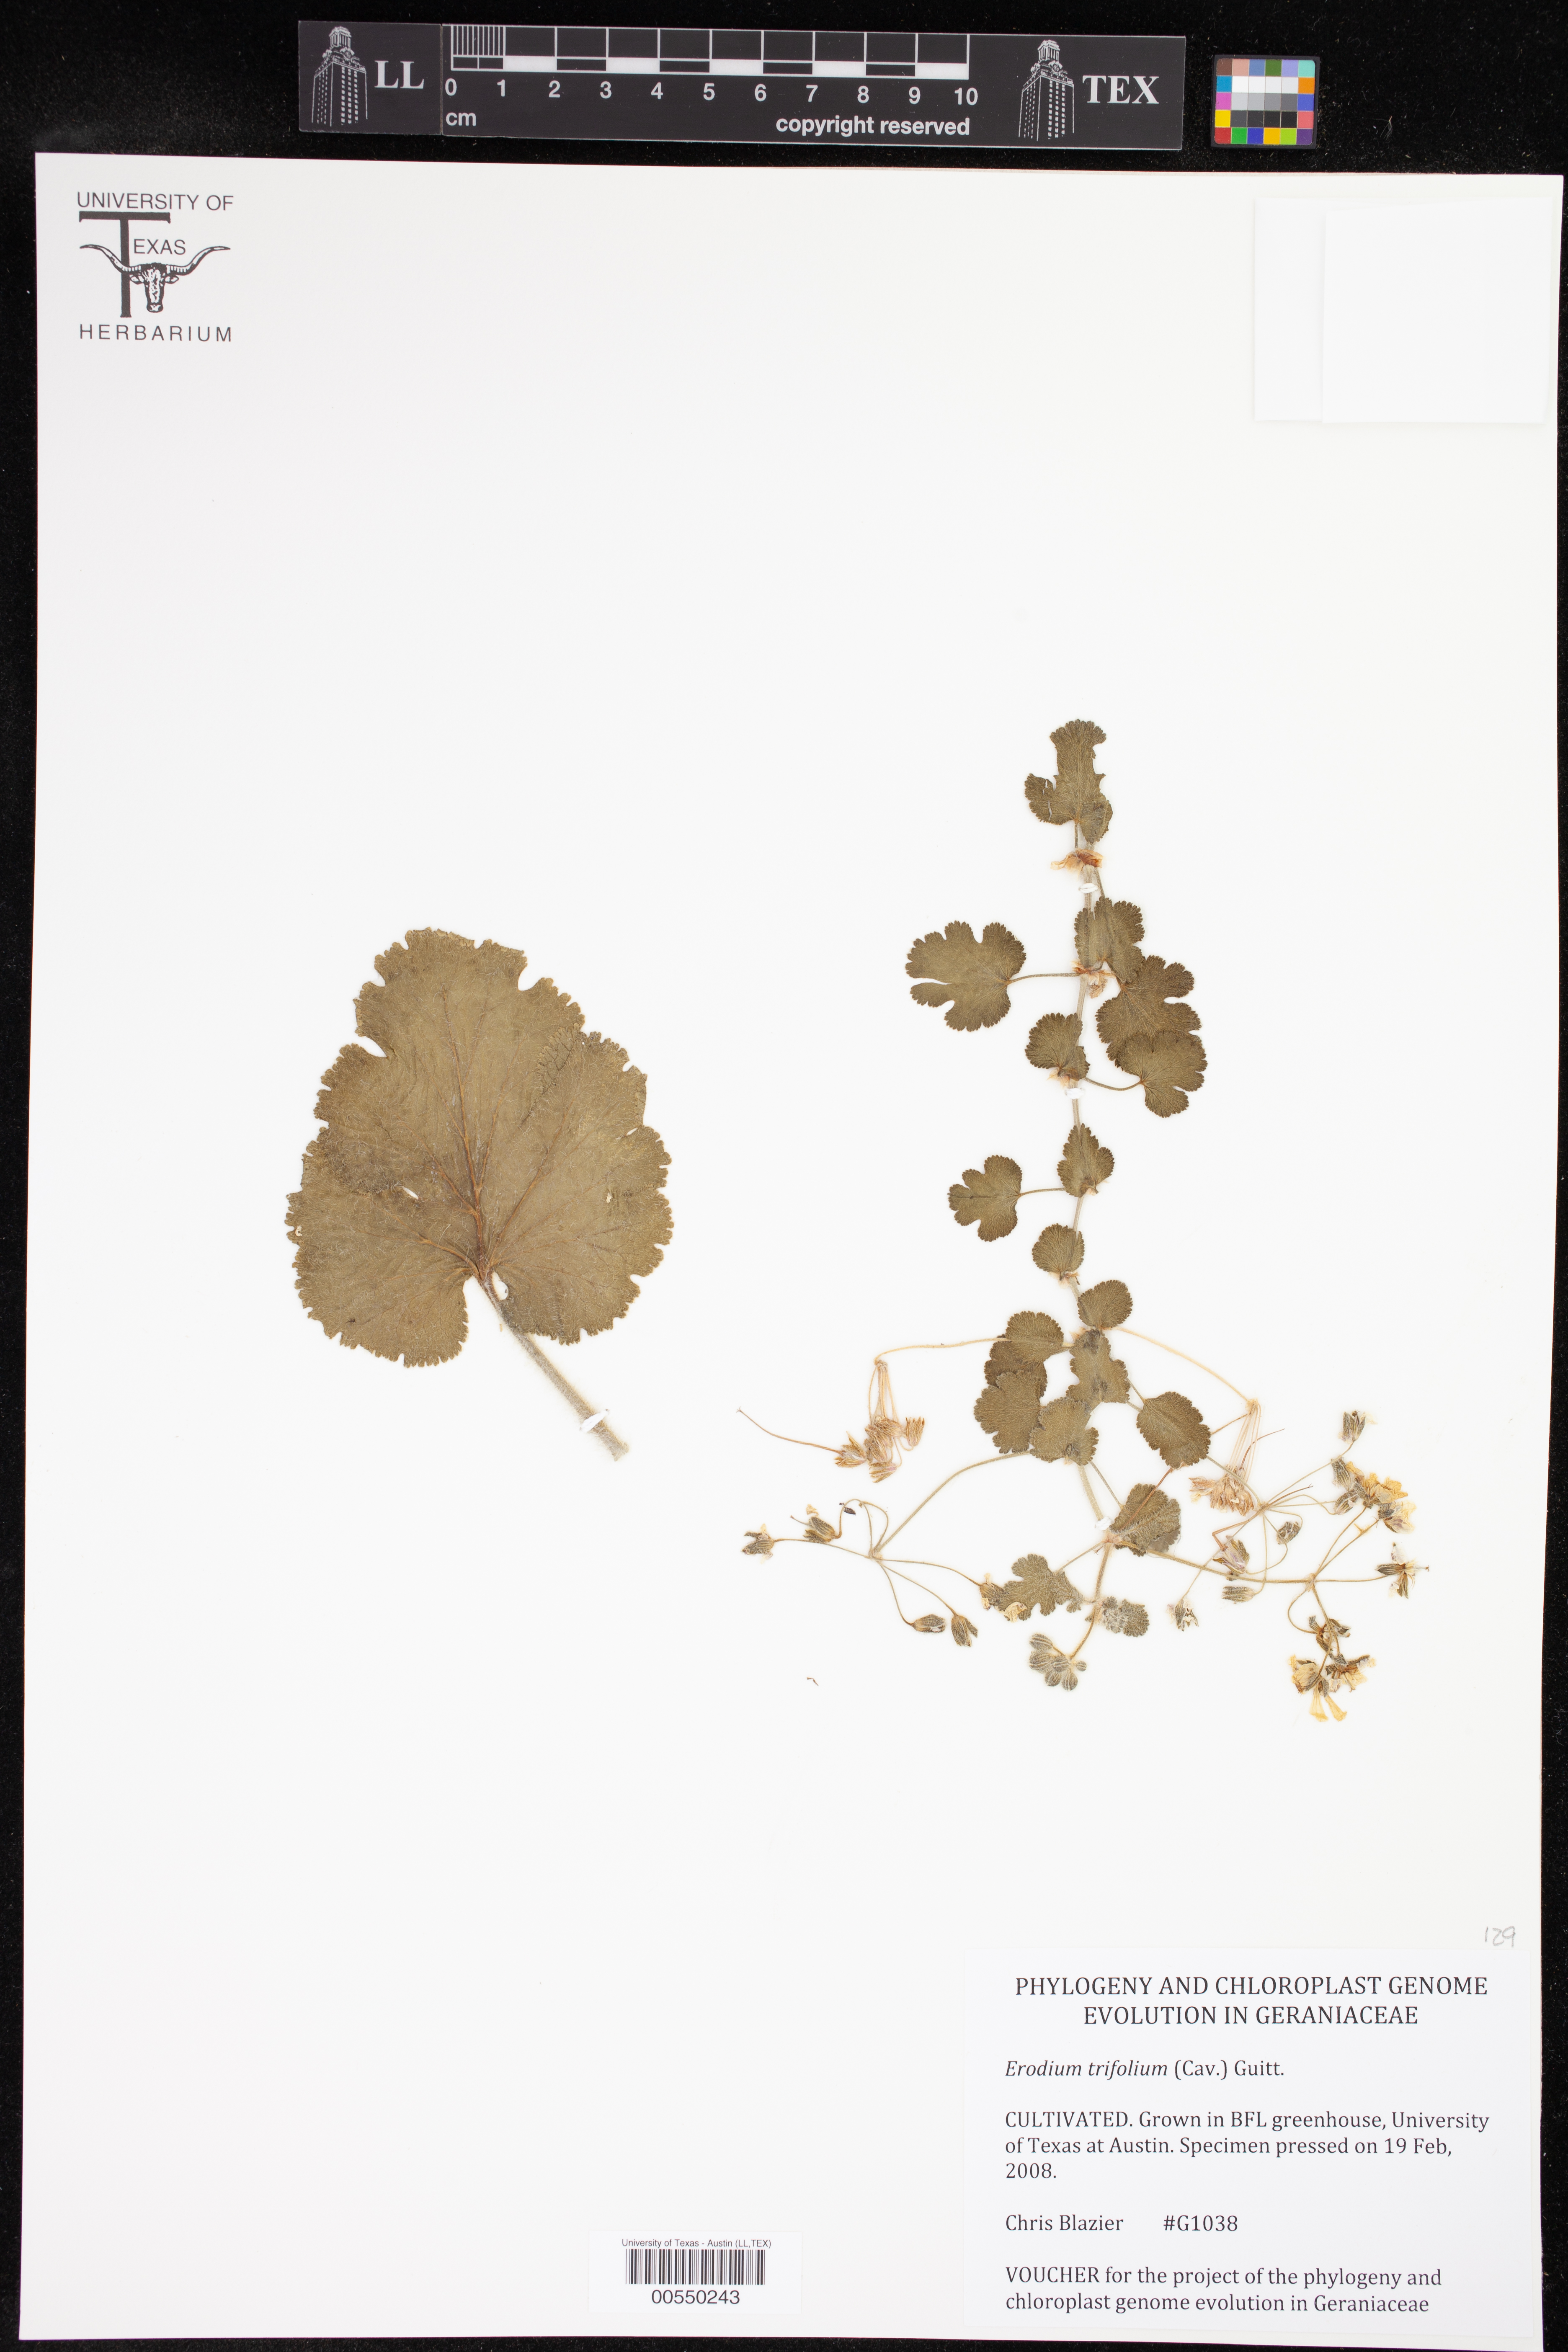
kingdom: Plantae
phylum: Tracheophyta
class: Magnoliopsida
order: Geraniales
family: Geraniaceae
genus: Erodium
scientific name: Erodium trifolium
